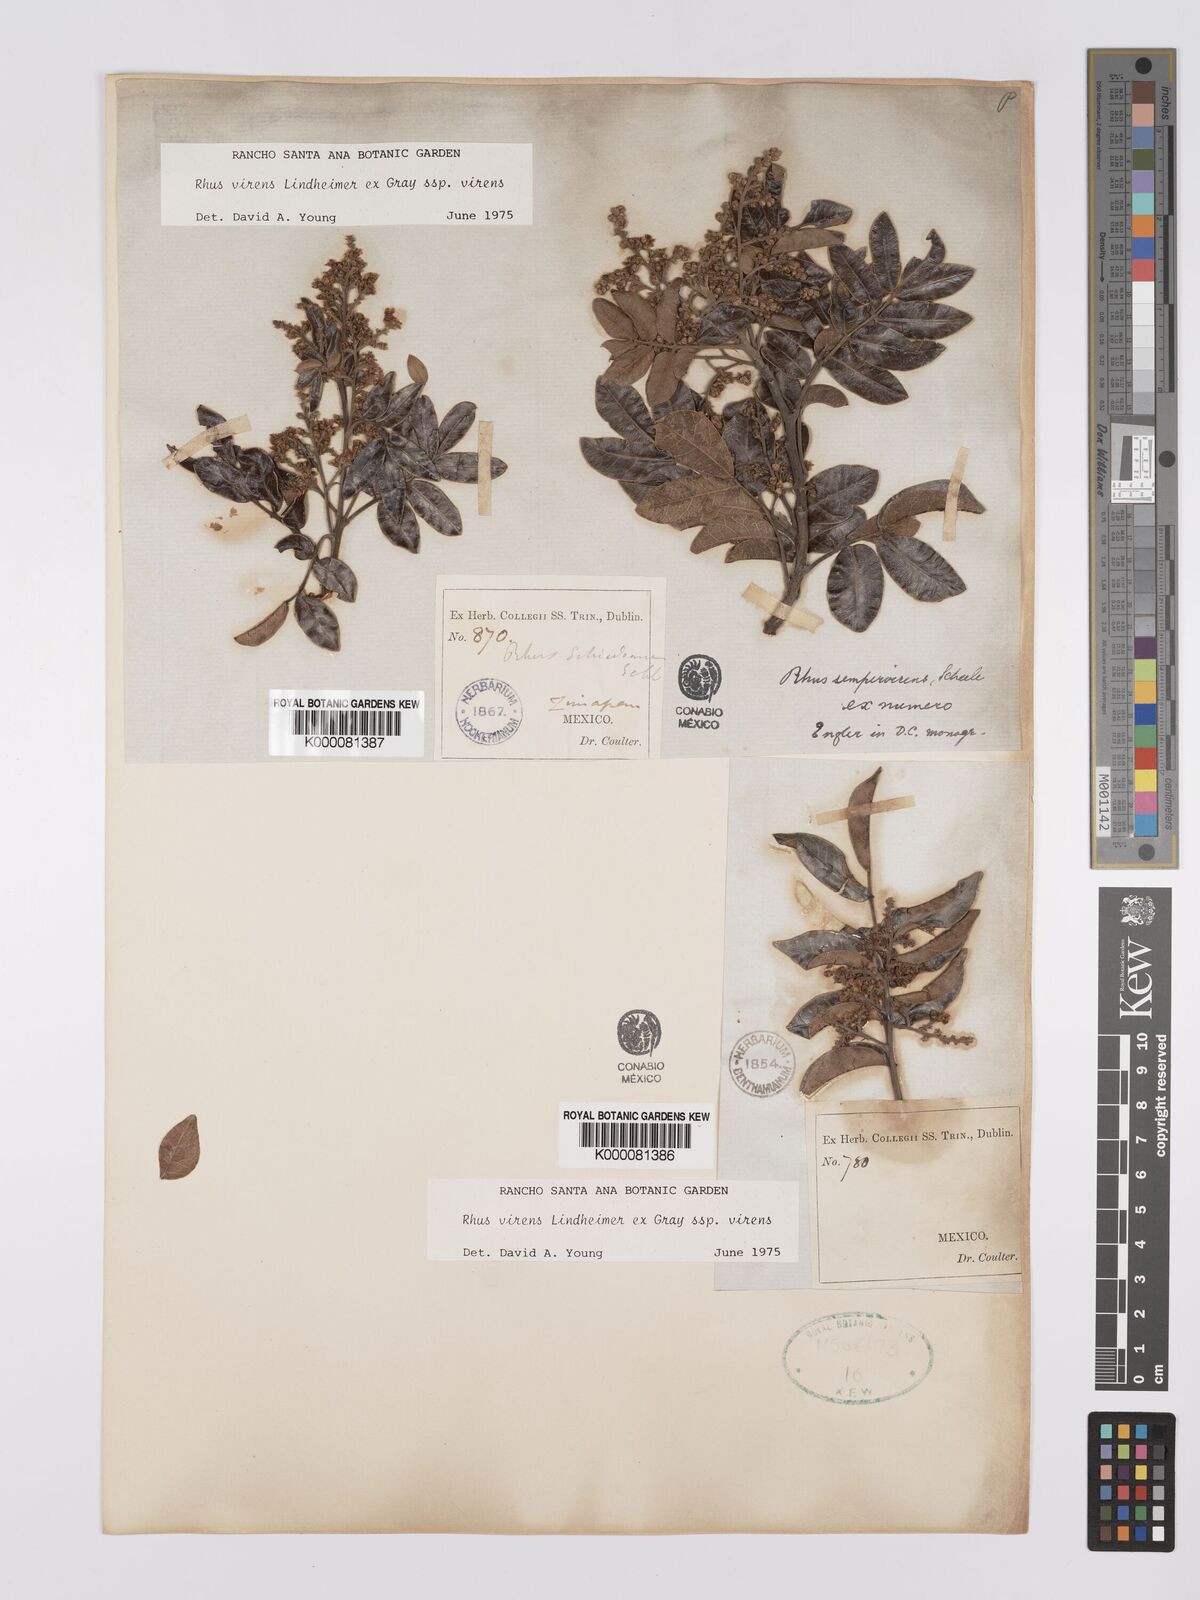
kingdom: Plantae
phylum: Tracheophyta
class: Magnoliopsida
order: Sapindales
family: Anacardiaceae
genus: Rhus
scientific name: Rhus virens
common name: Evergreen sumac
